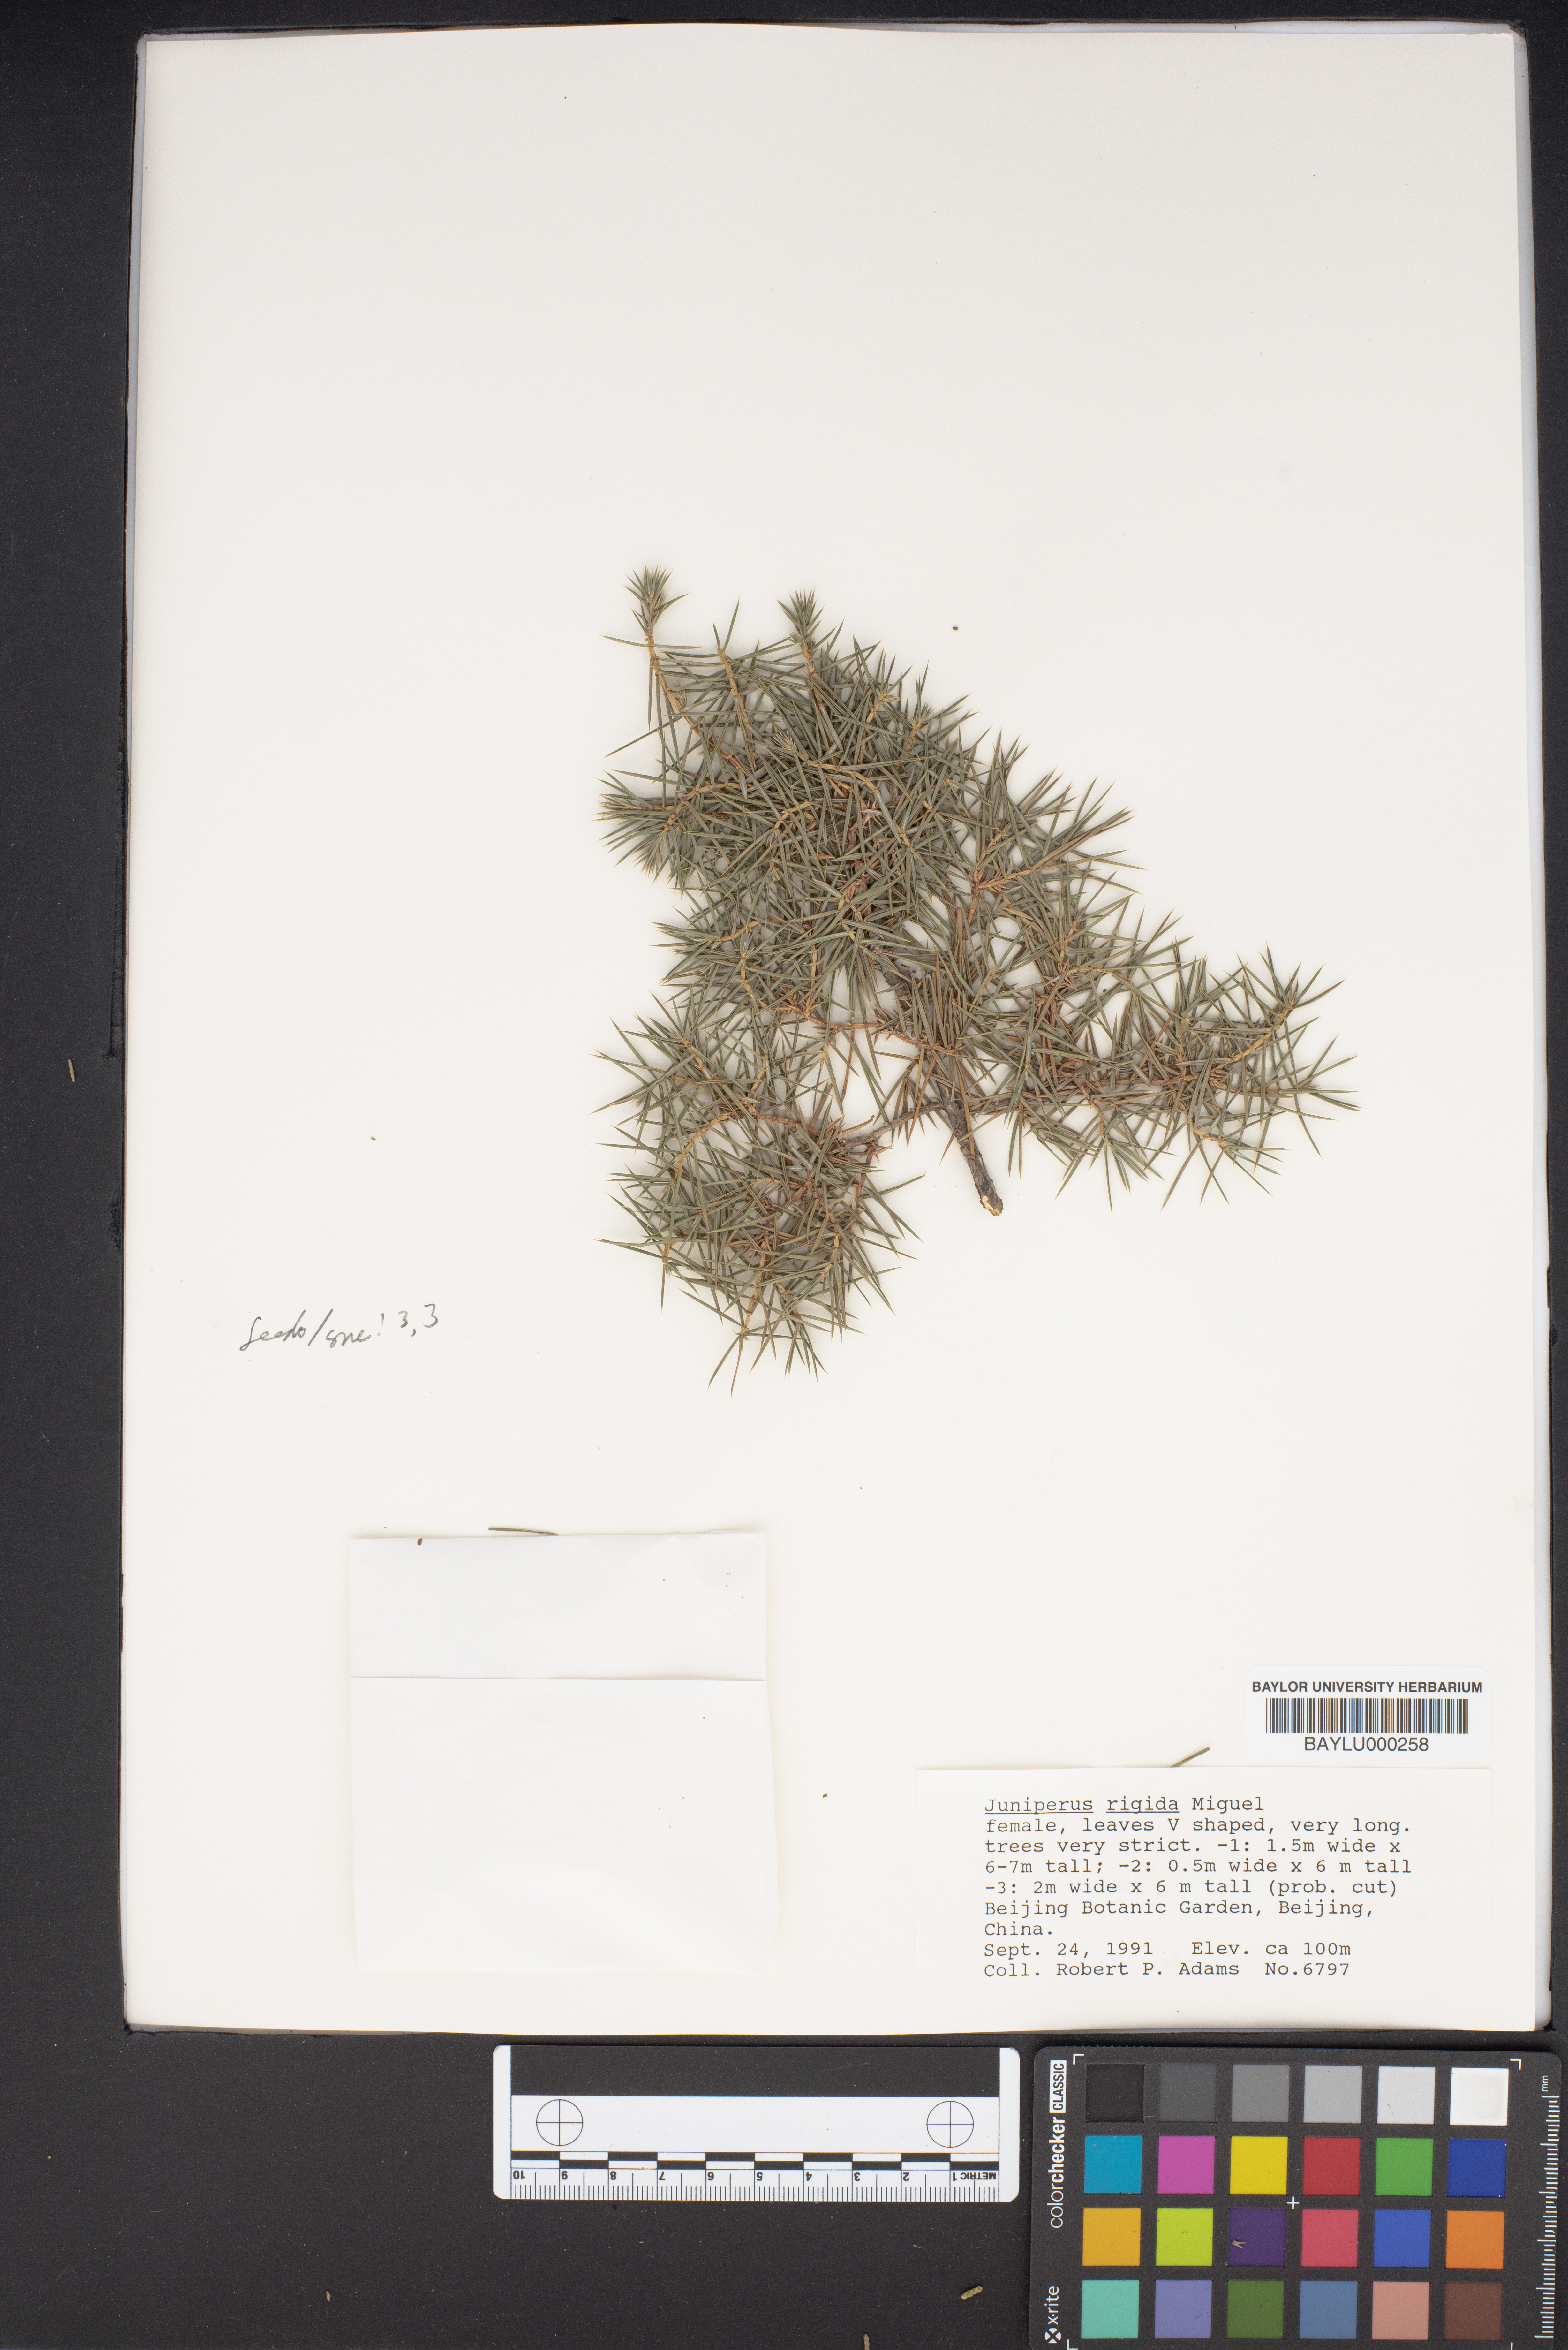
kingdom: Plantae
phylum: Tracheophyta
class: Pinopsida
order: Pinales
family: Cupressaceae
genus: Juniperus
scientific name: Juniperus rigida
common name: Needle juniper
